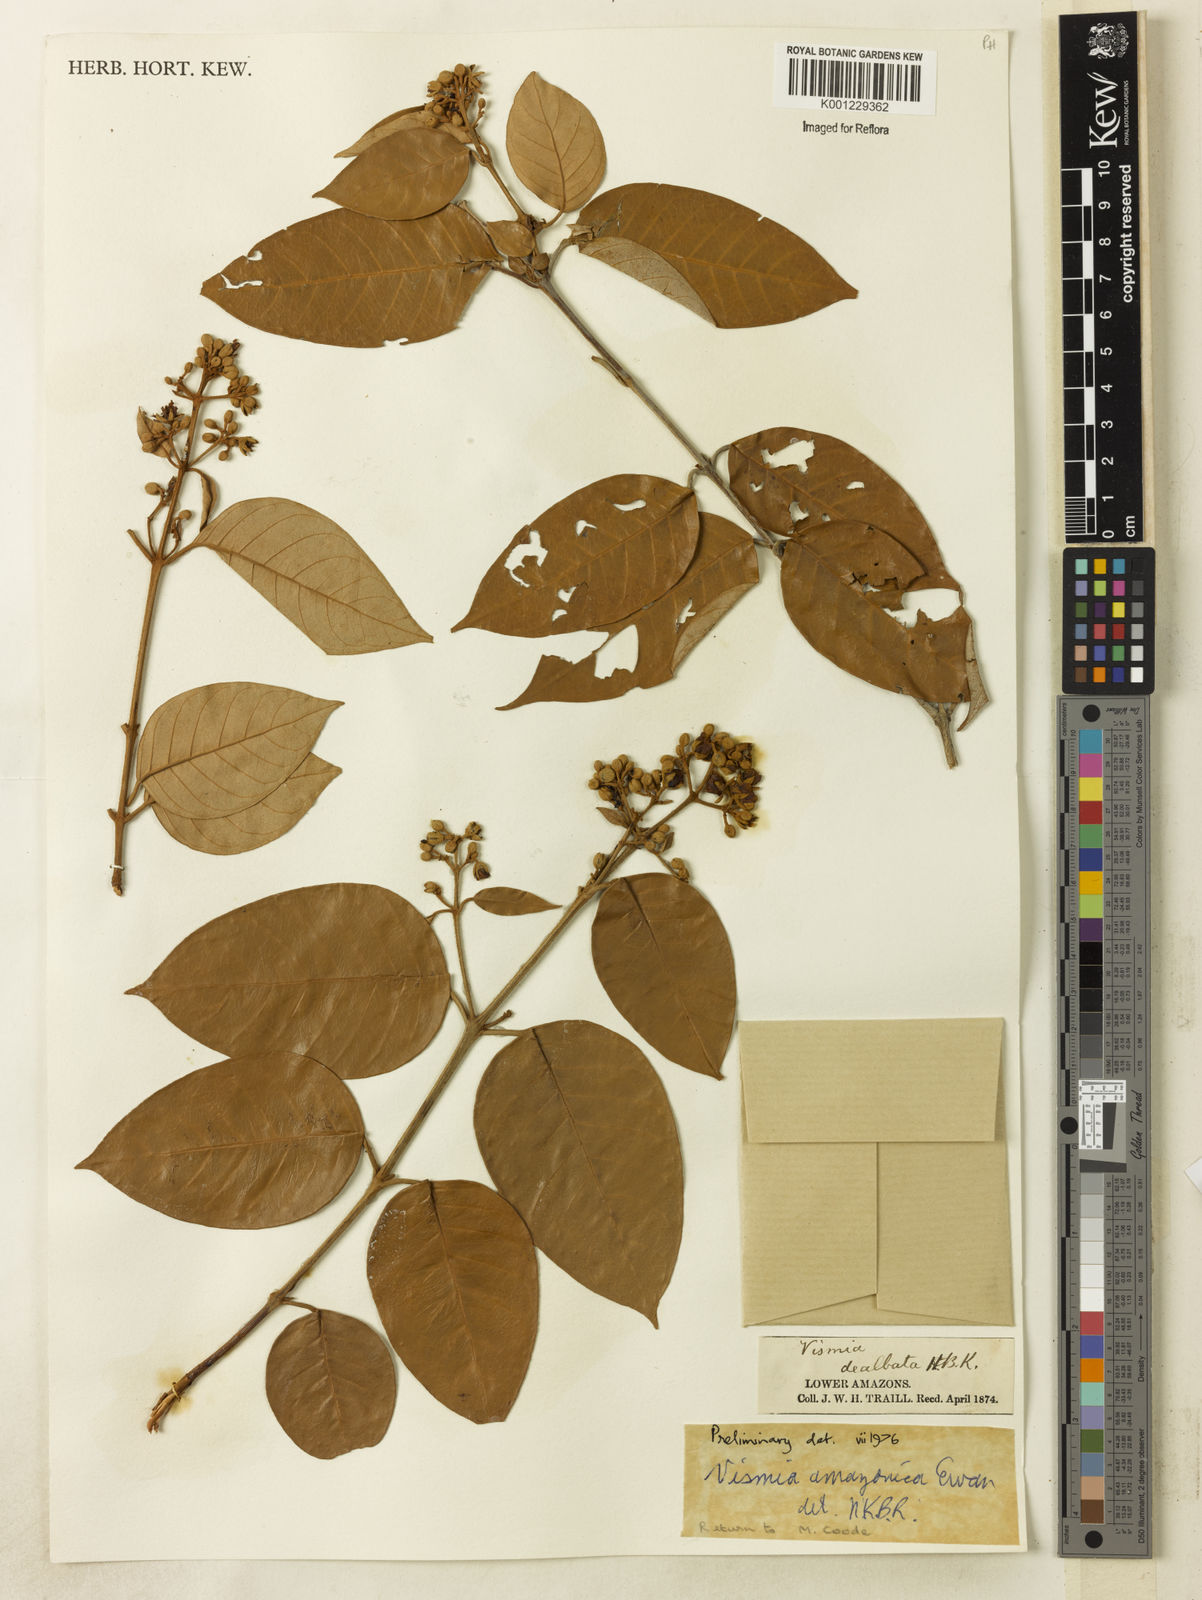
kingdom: Plantae
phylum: Tracheophyta
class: Magnoliopsida
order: Malpighiales
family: Hypericaceae
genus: Vismia
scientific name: Vismia gracilis
